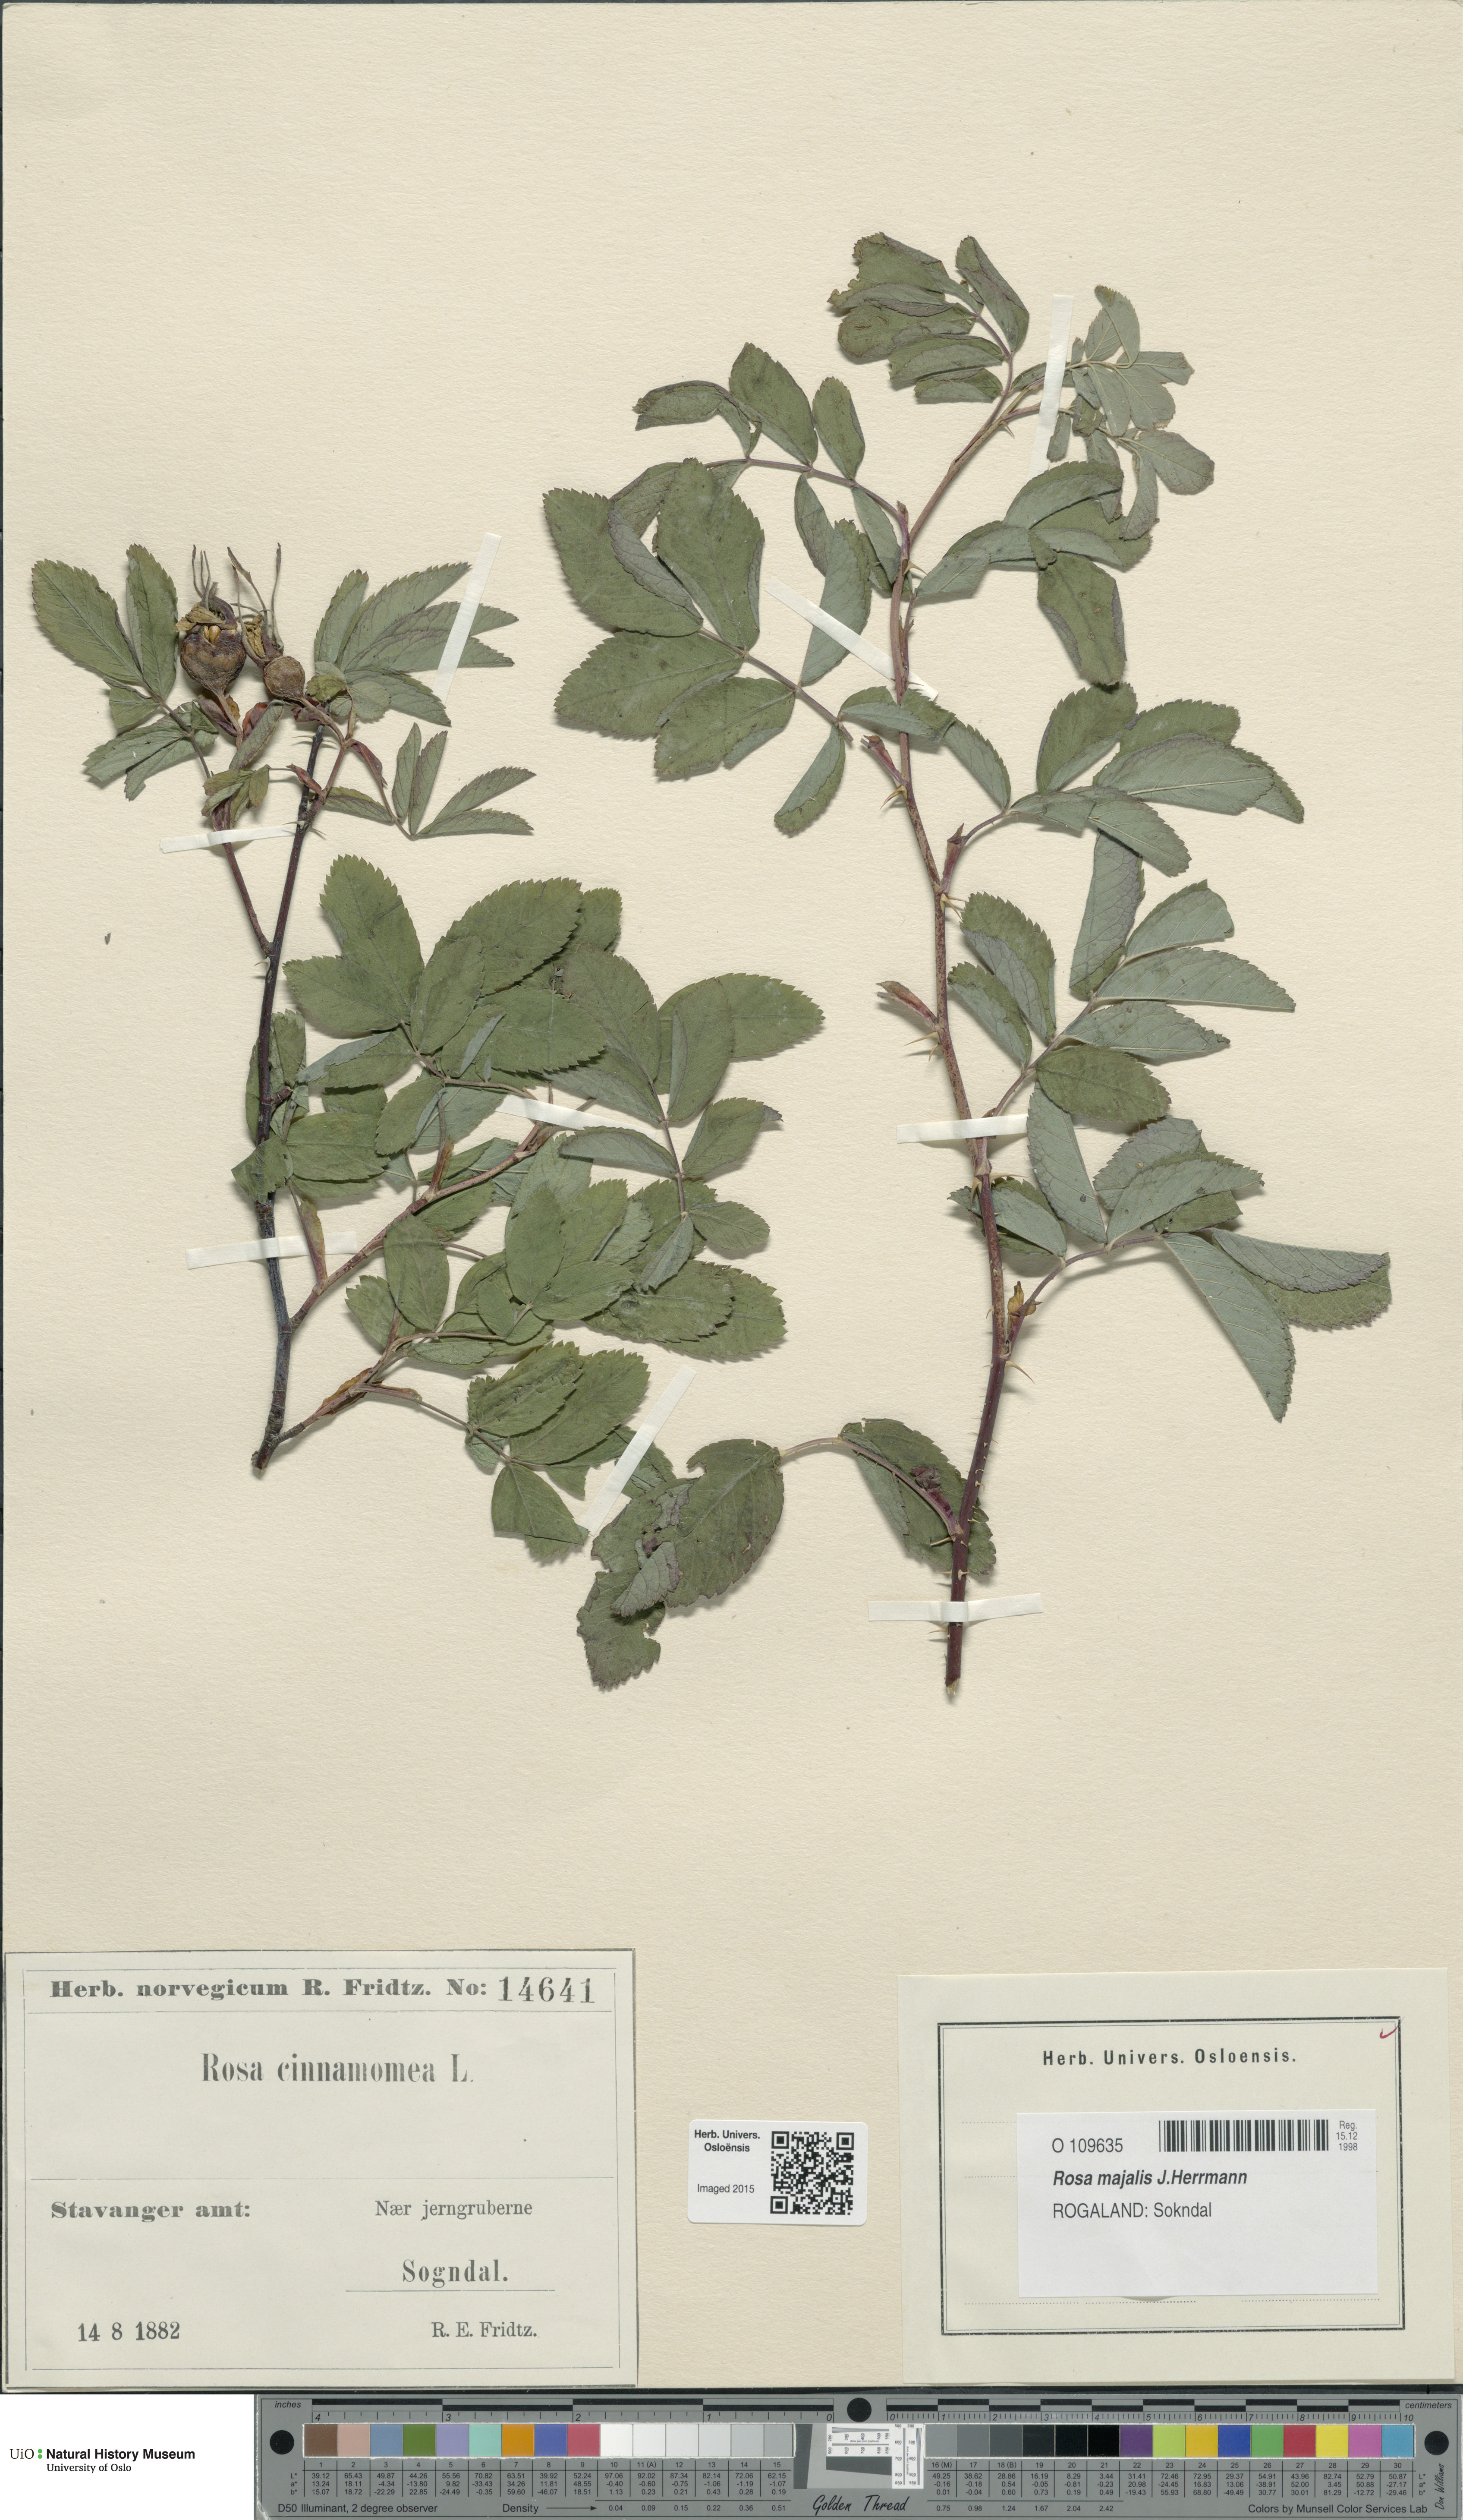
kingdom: Plantae
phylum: Tracheophyta
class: Magnoliopsida
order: Rosales
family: Rosaceae
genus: Rosa
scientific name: Rosa pendulina
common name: Alpine rose
